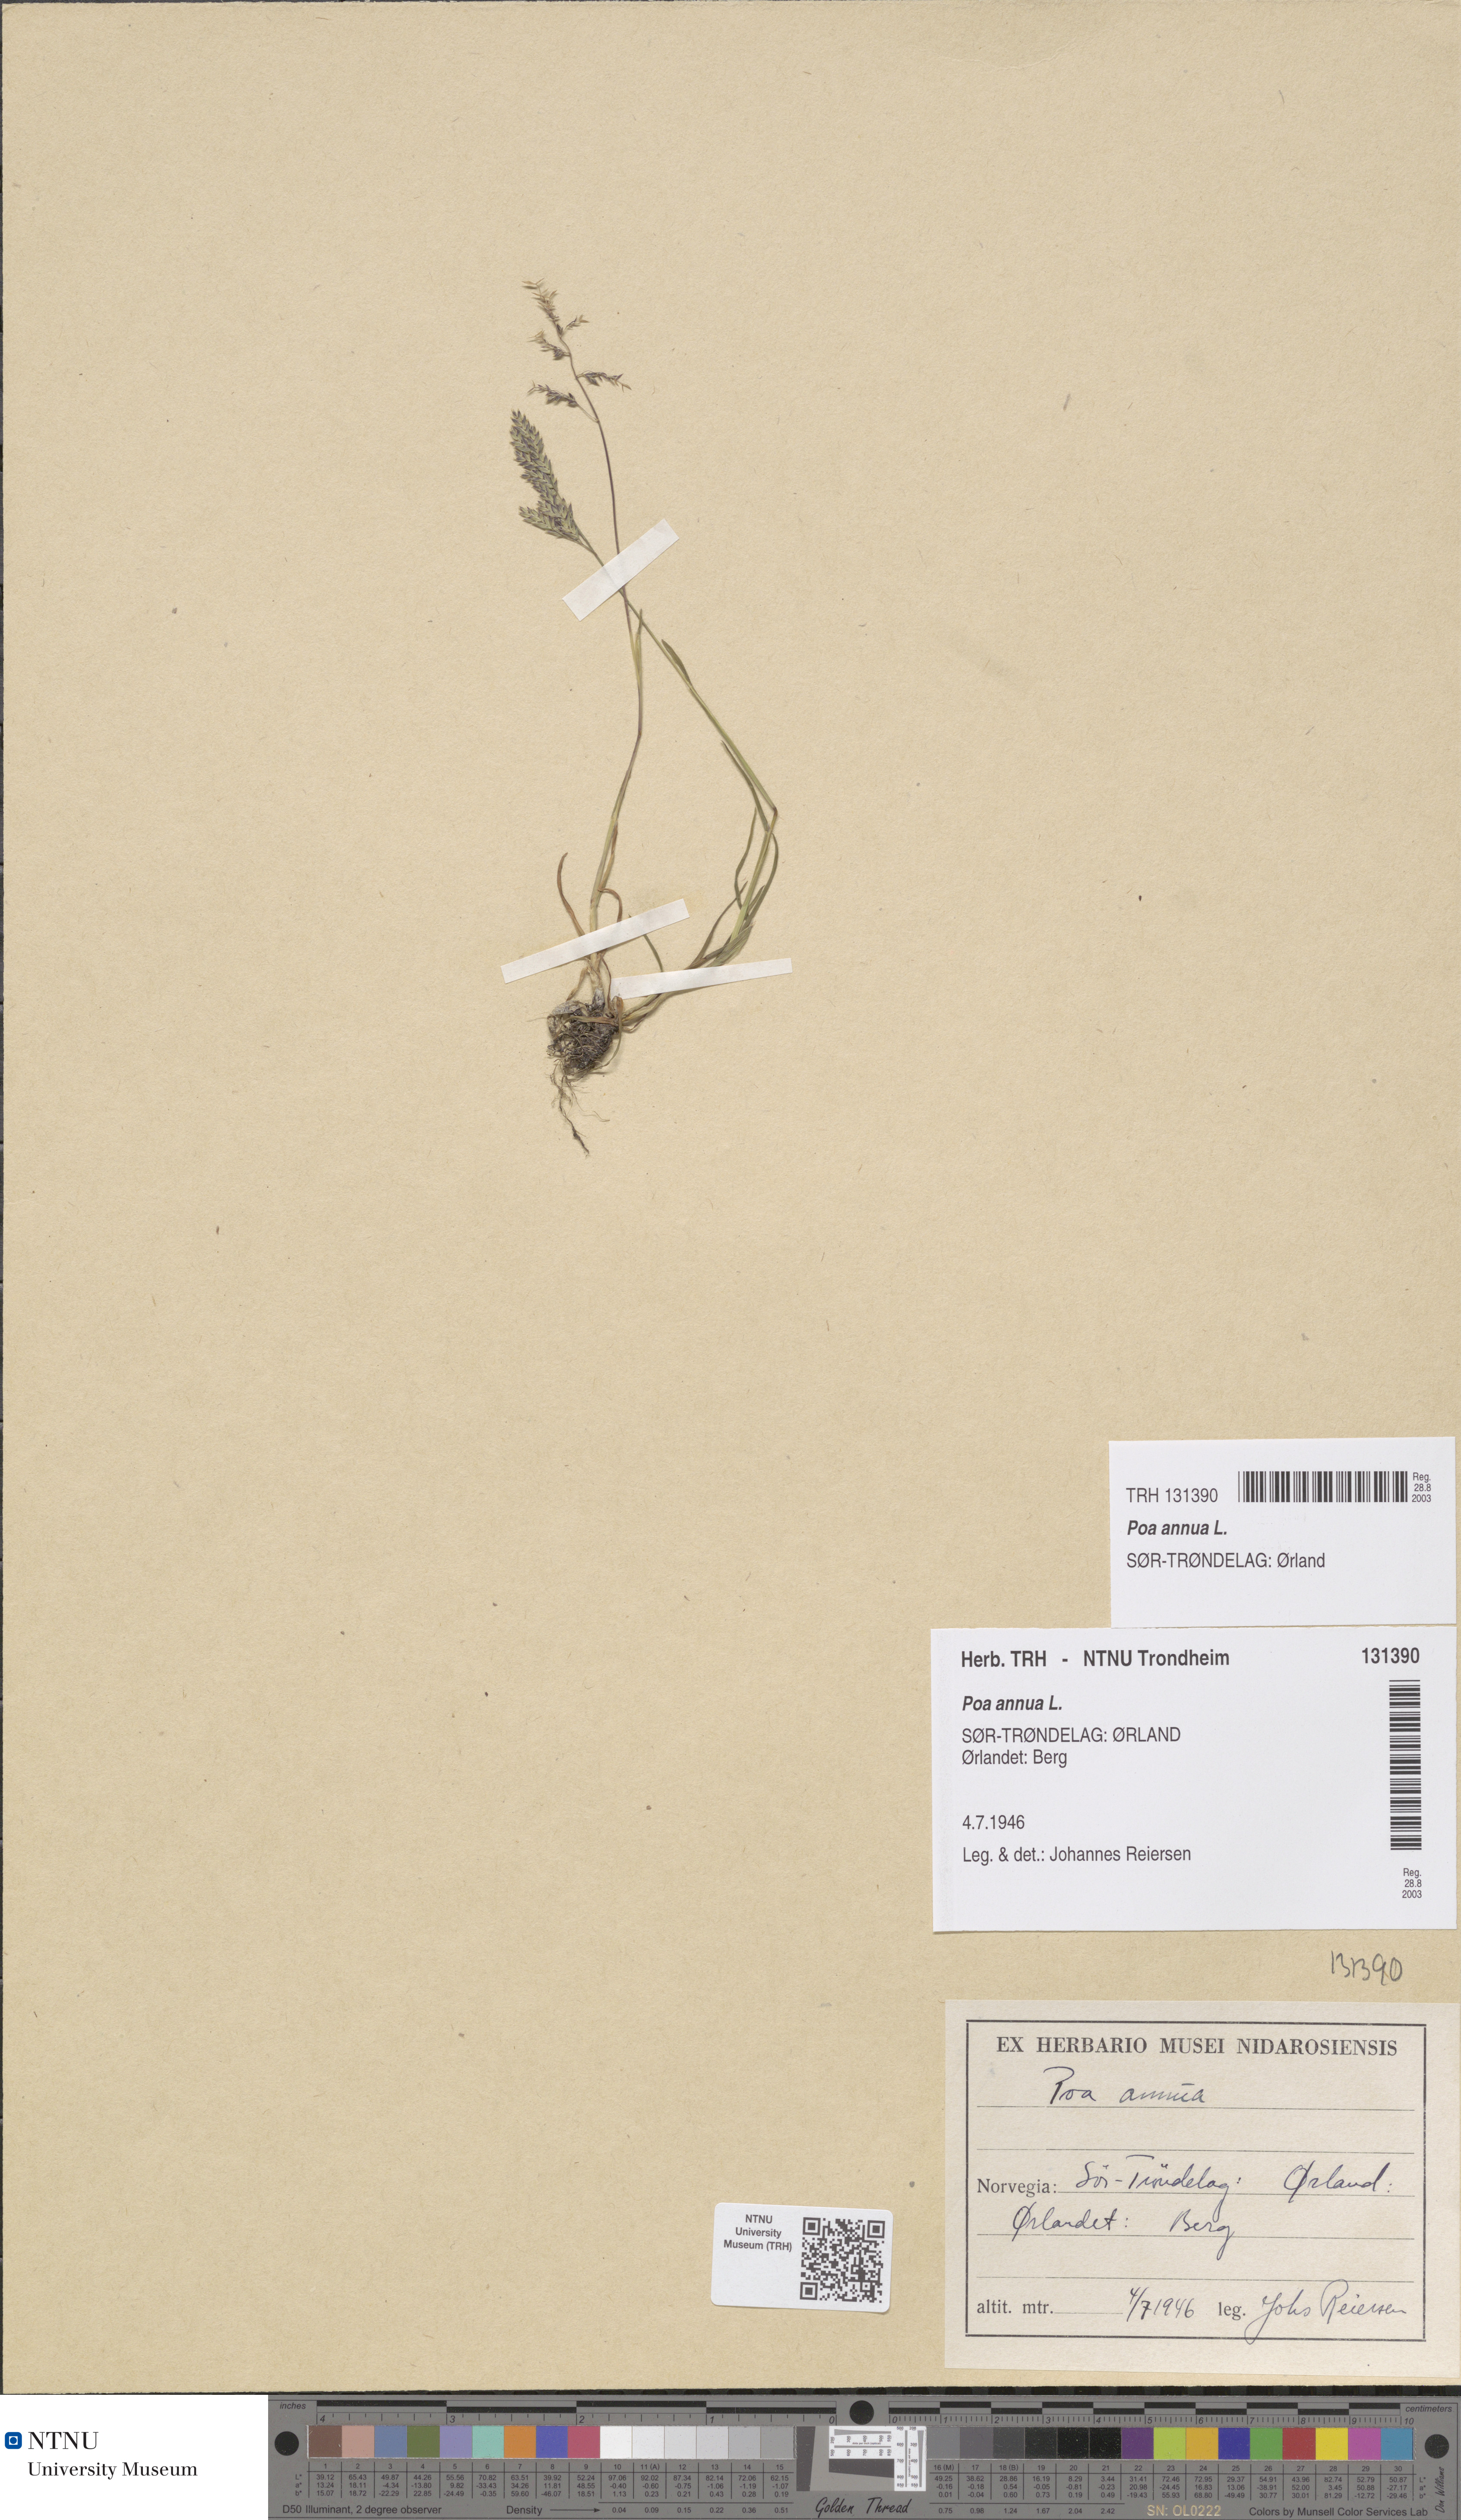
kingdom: Plantae
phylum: Tracheophyta
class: Liliopsida
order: Poales
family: Poaceae
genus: Poa
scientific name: Poa annua
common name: Annual bluegrass
